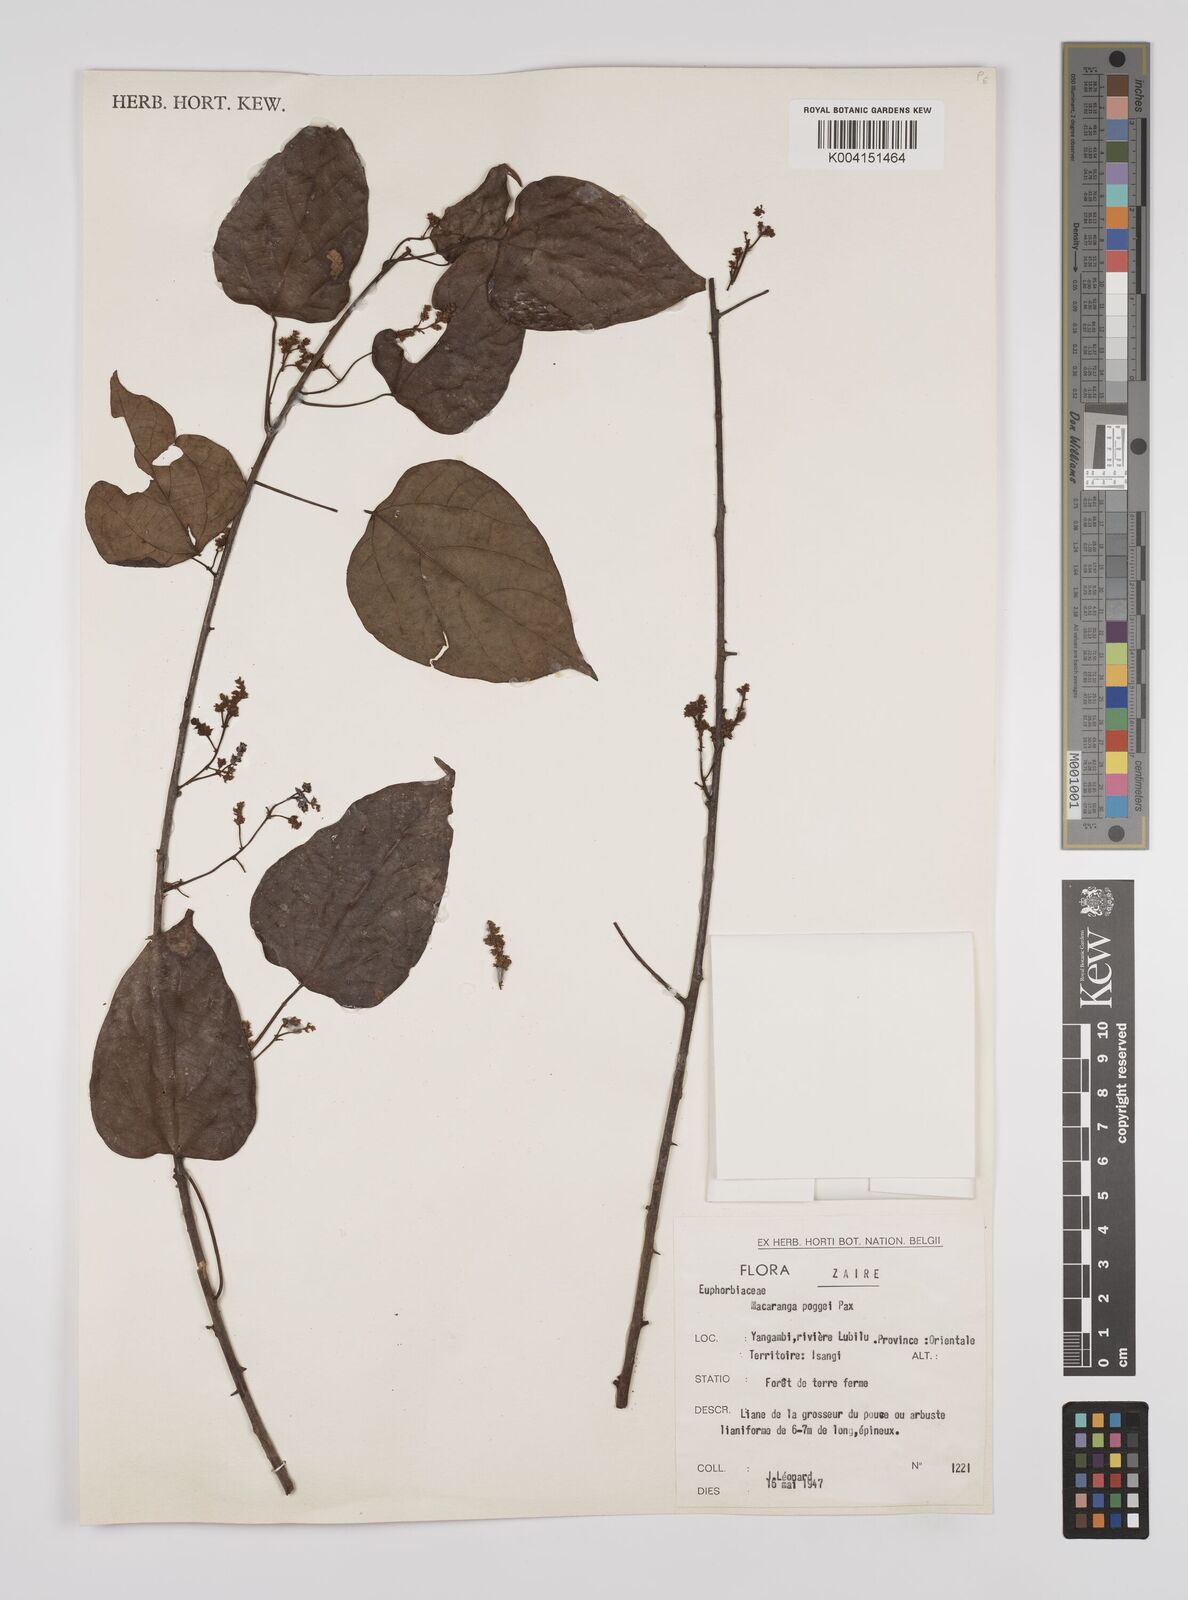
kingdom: Plantae
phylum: Tracheophyta
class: Magnoliopsida
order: Malpighiales
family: Euphorbiaceae
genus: Macaranga
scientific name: Macaranga poggei
